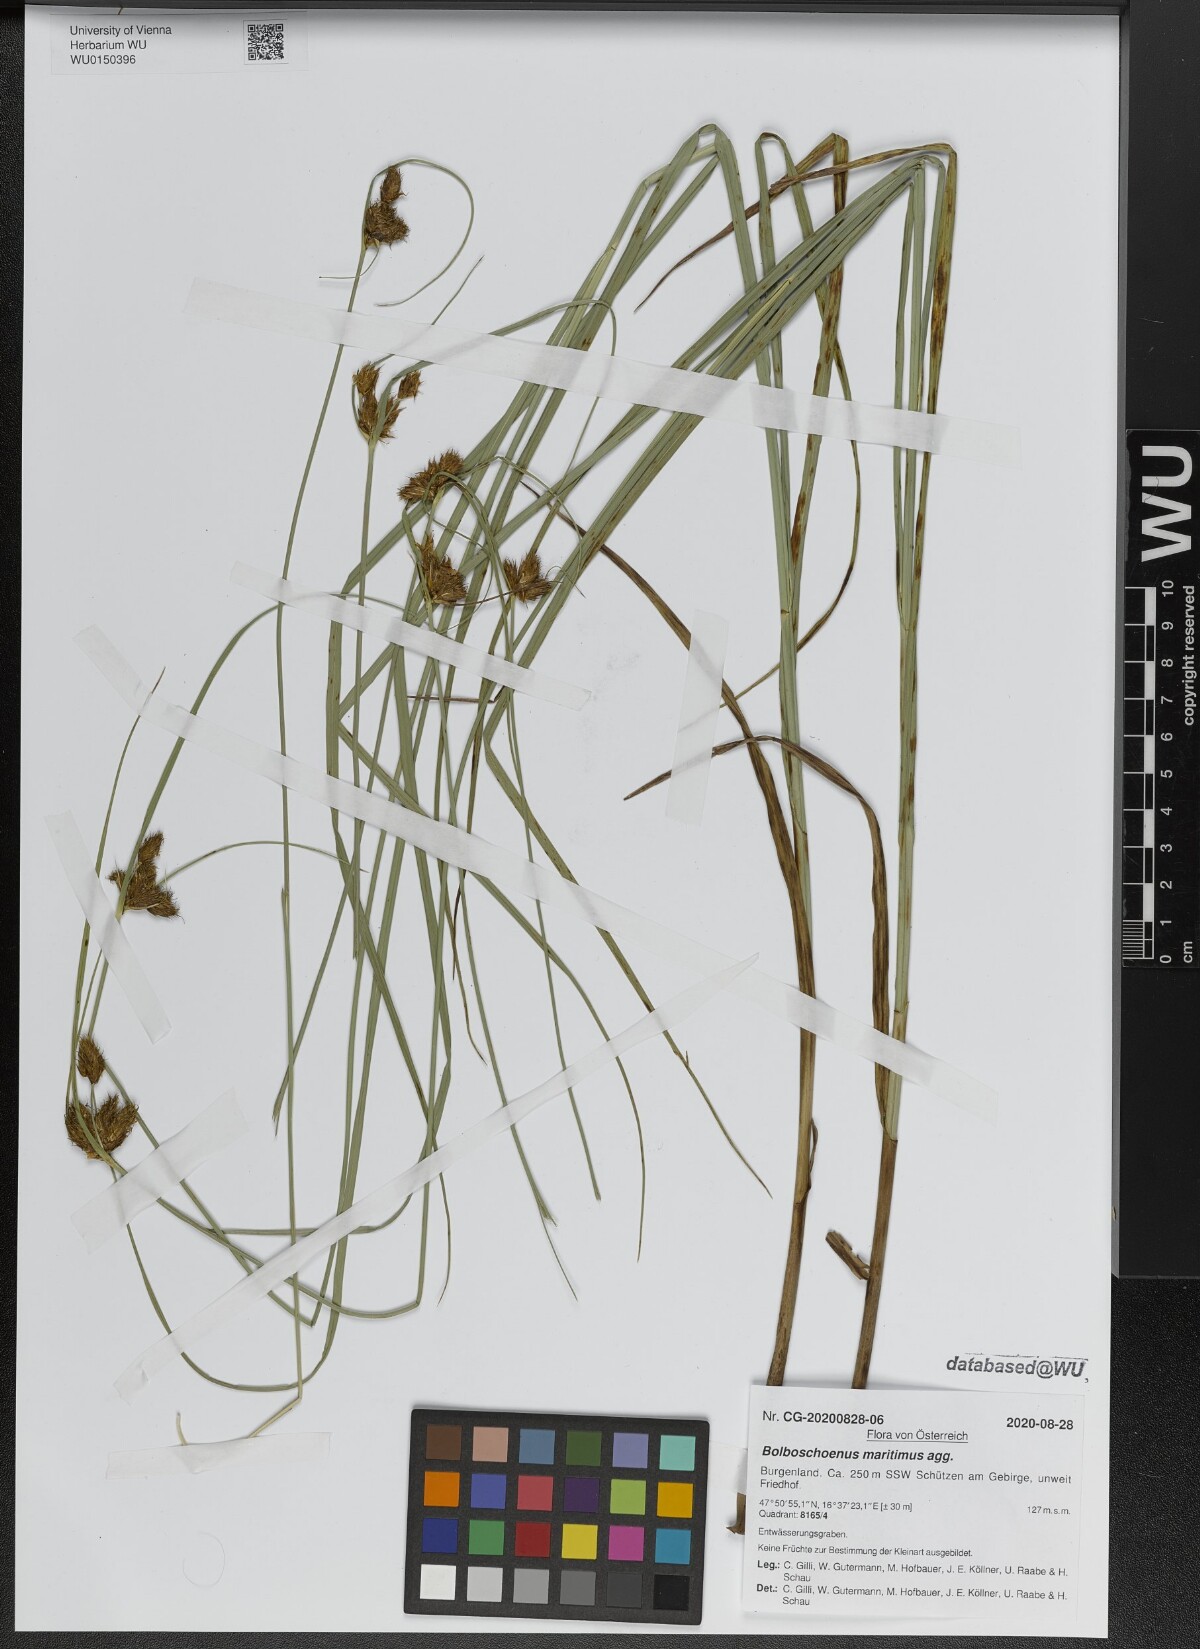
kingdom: Plantae
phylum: Tracheophyta
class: Liliopsida
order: Poales
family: Cyperaceae
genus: Bolboschoenus
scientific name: Bolboschoenus maritimus
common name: Sea club-rush
